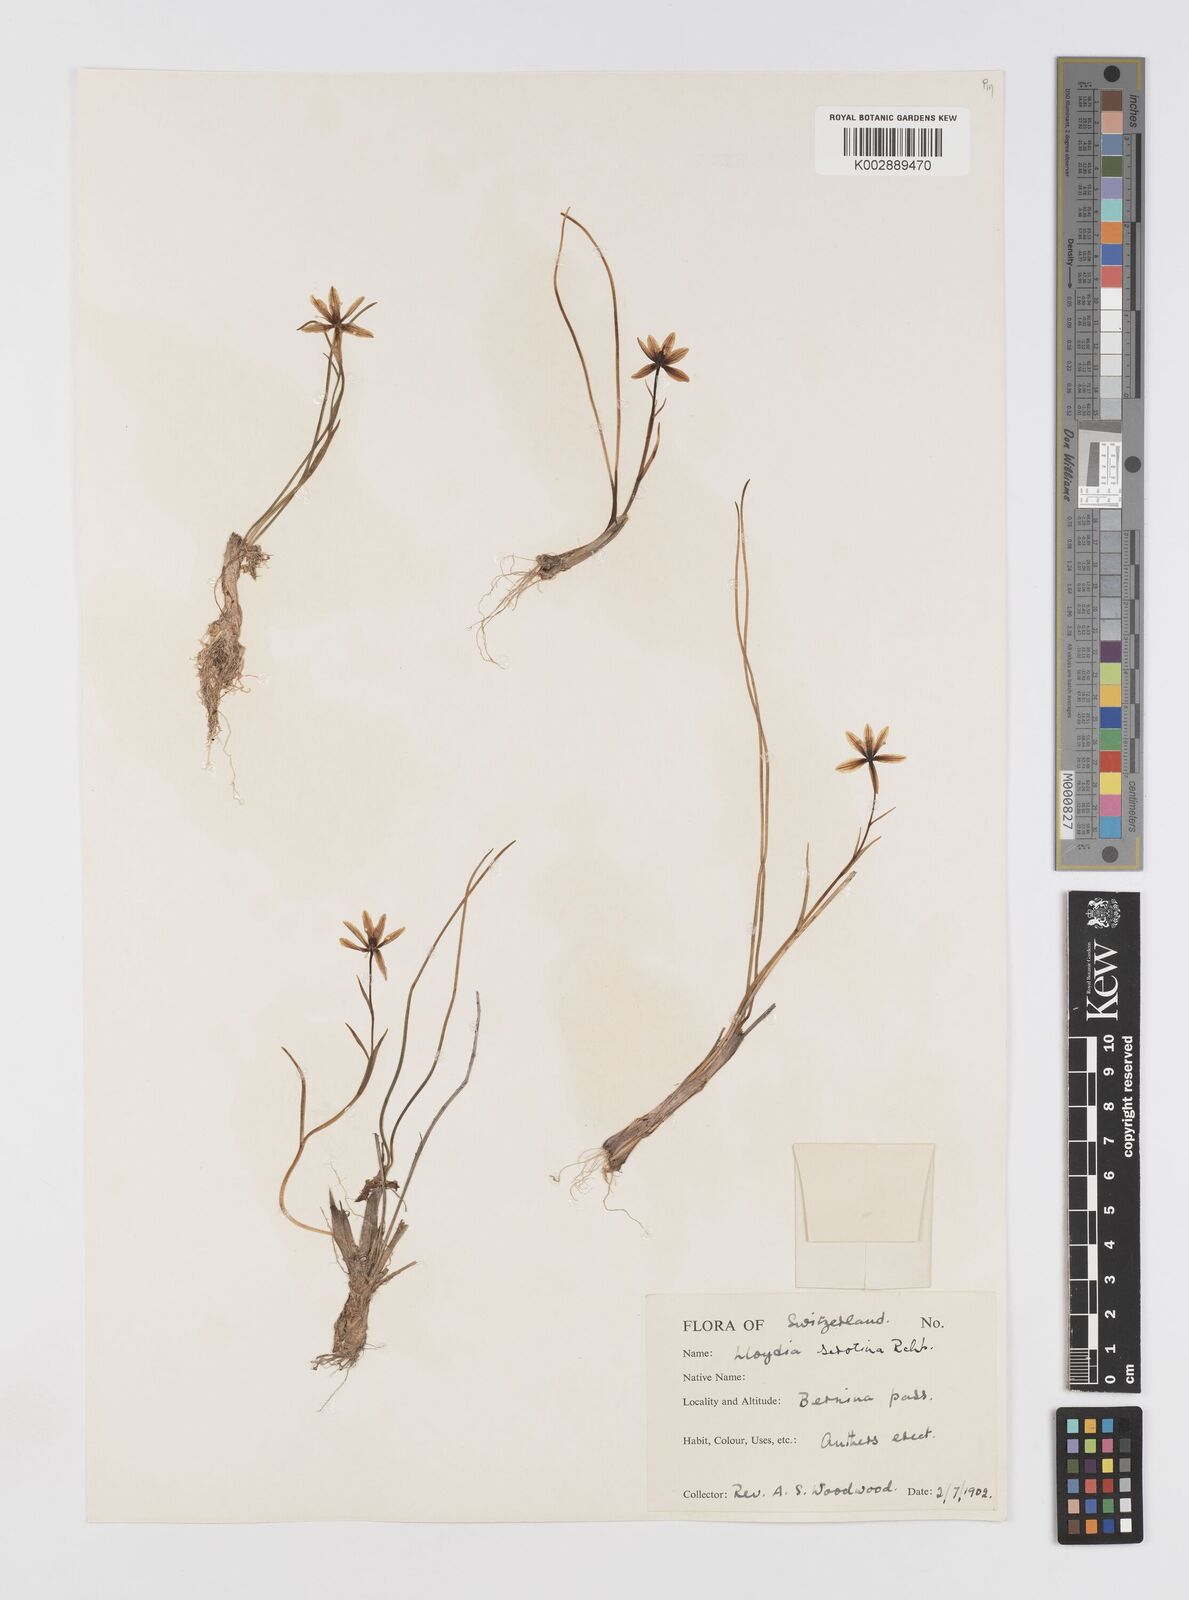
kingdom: Plantae
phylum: Tracheophyta
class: Liliopsida
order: Liliales
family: Liliaceae
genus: Gagea
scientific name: Gagea
